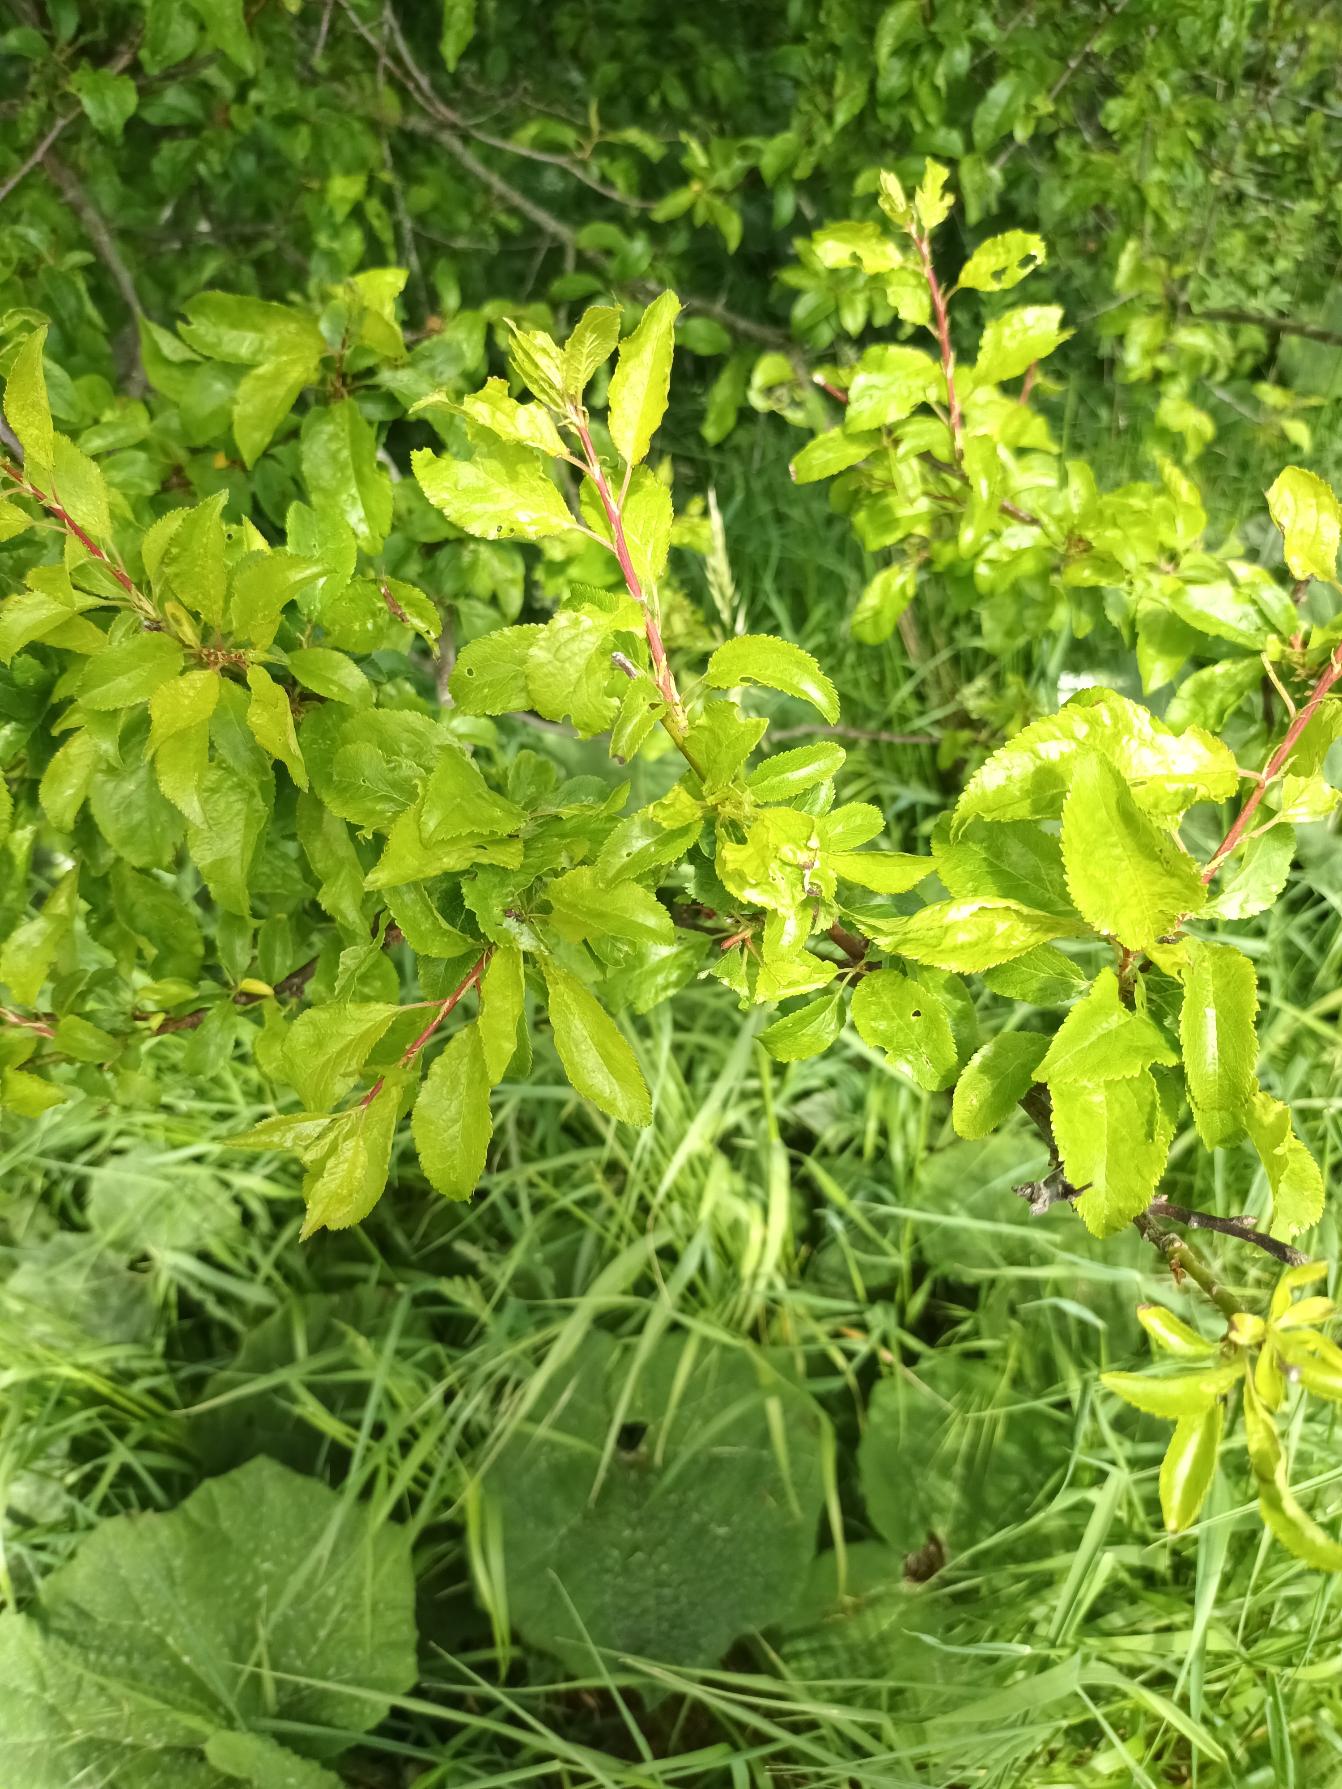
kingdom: Plantae
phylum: Tracheophyta
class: Magnoliopsida
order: Rosales
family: Rosaceae
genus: Prunus
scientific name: Prunus cerasifera
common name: Mirabel
